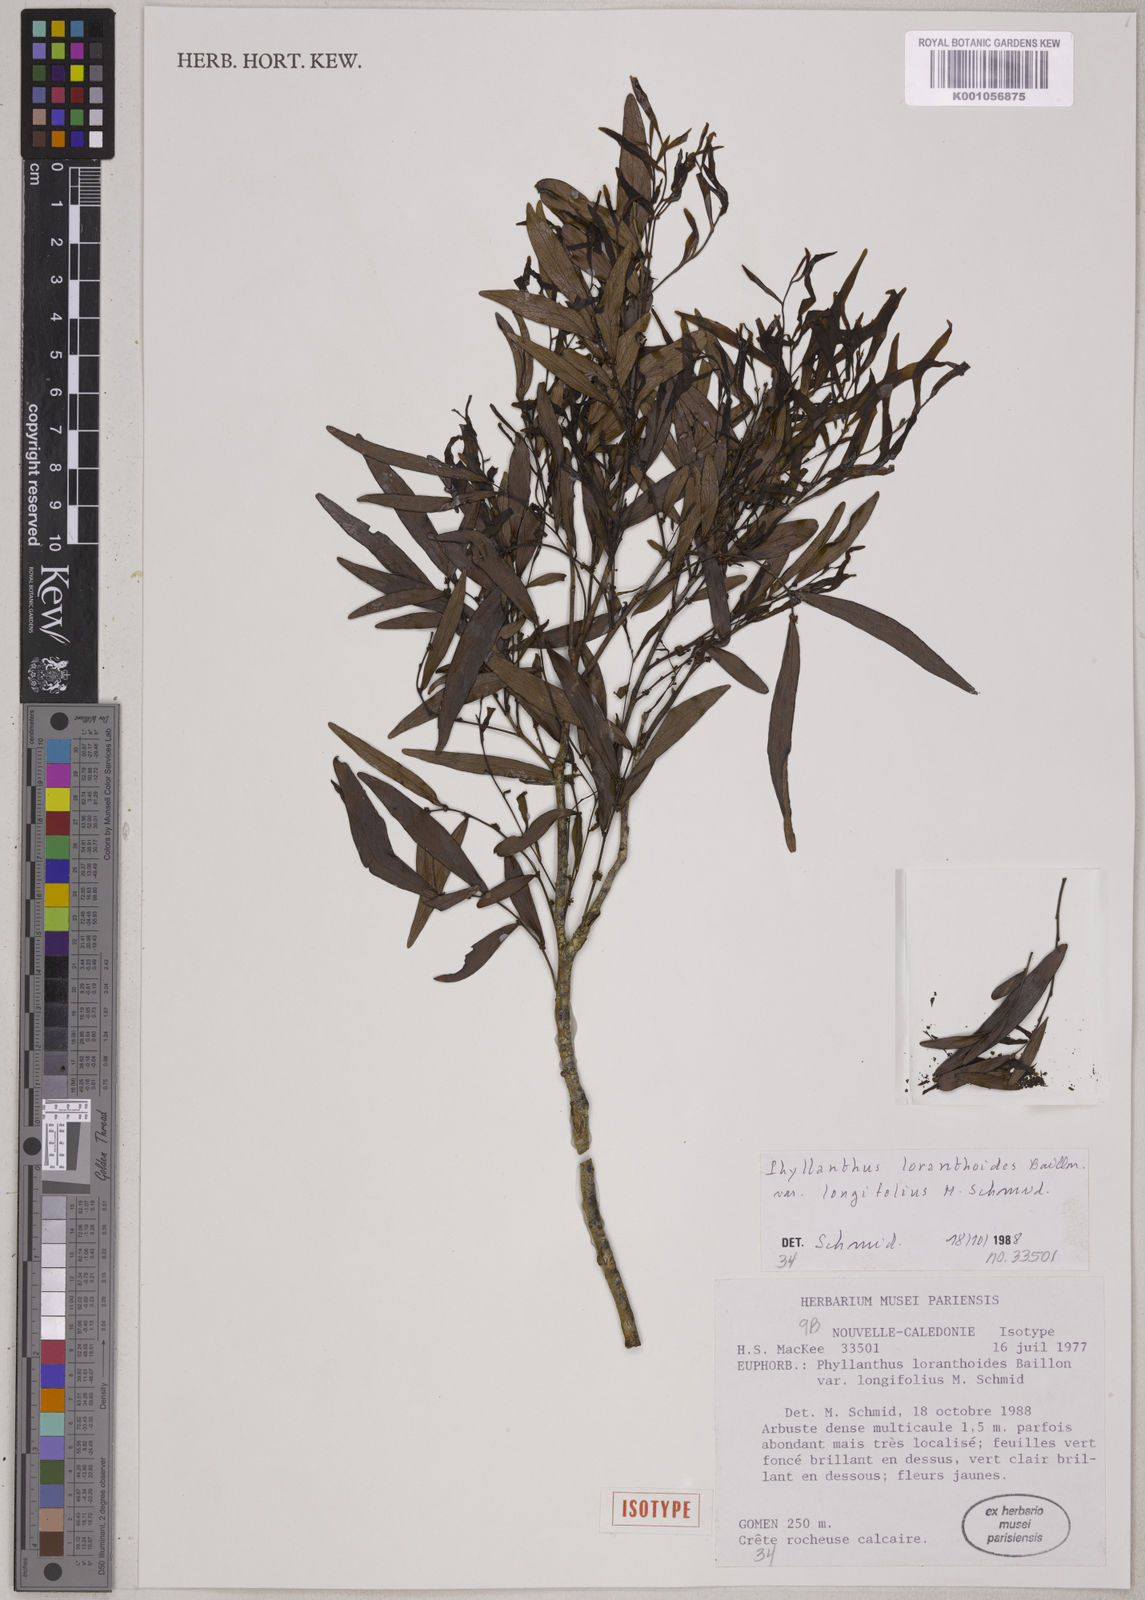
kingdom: Plantae
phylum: Tracheophyta
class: Magnoliopsida
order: Malpighiales
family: Phyllanthaceae
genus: Phyllanthus
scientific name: Phyllanthus loranthoides
